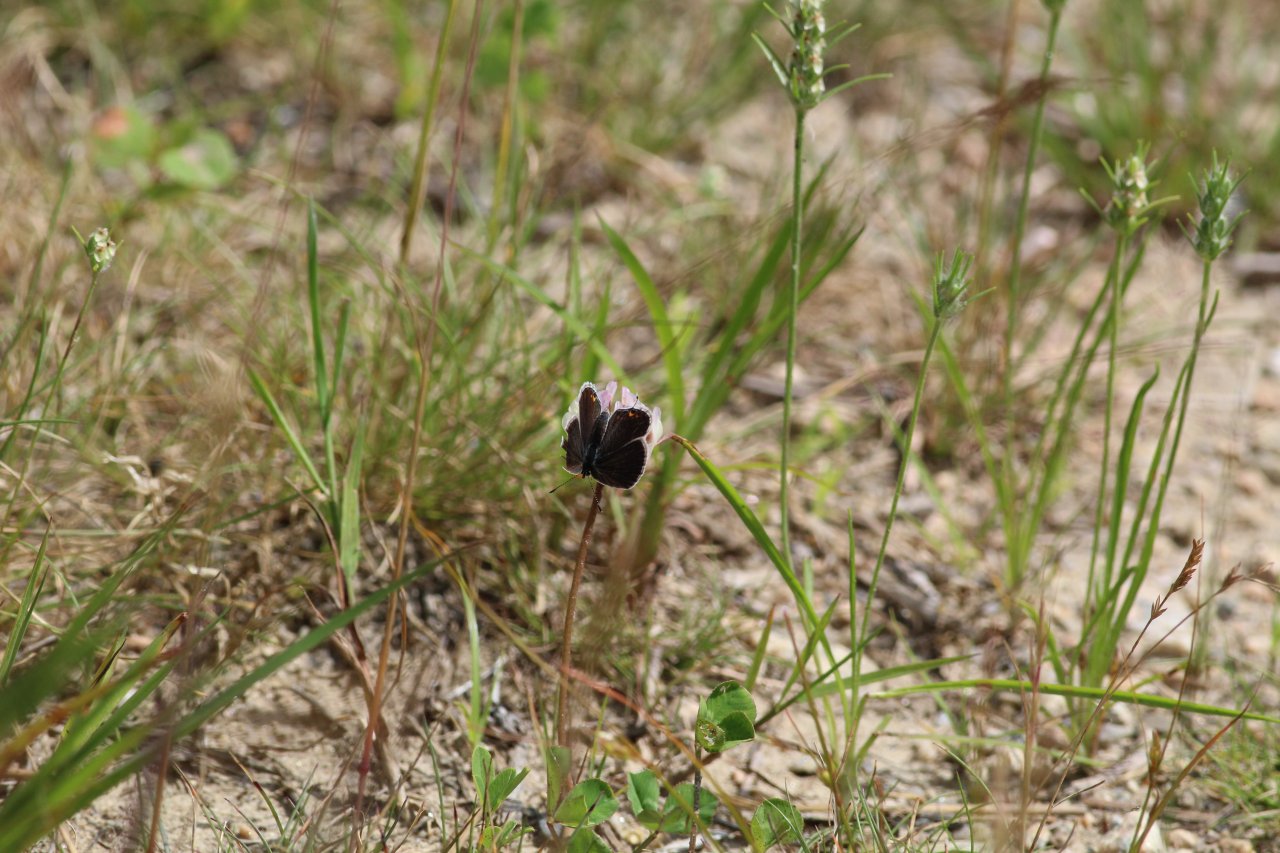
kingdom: Animalia
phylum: Arthropoda
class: Insecta
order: Lepidoptera
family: Lycaenidae
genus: Elkalyce
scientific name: Elkalyce comyntas
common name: Eastern Tailed-Blue
